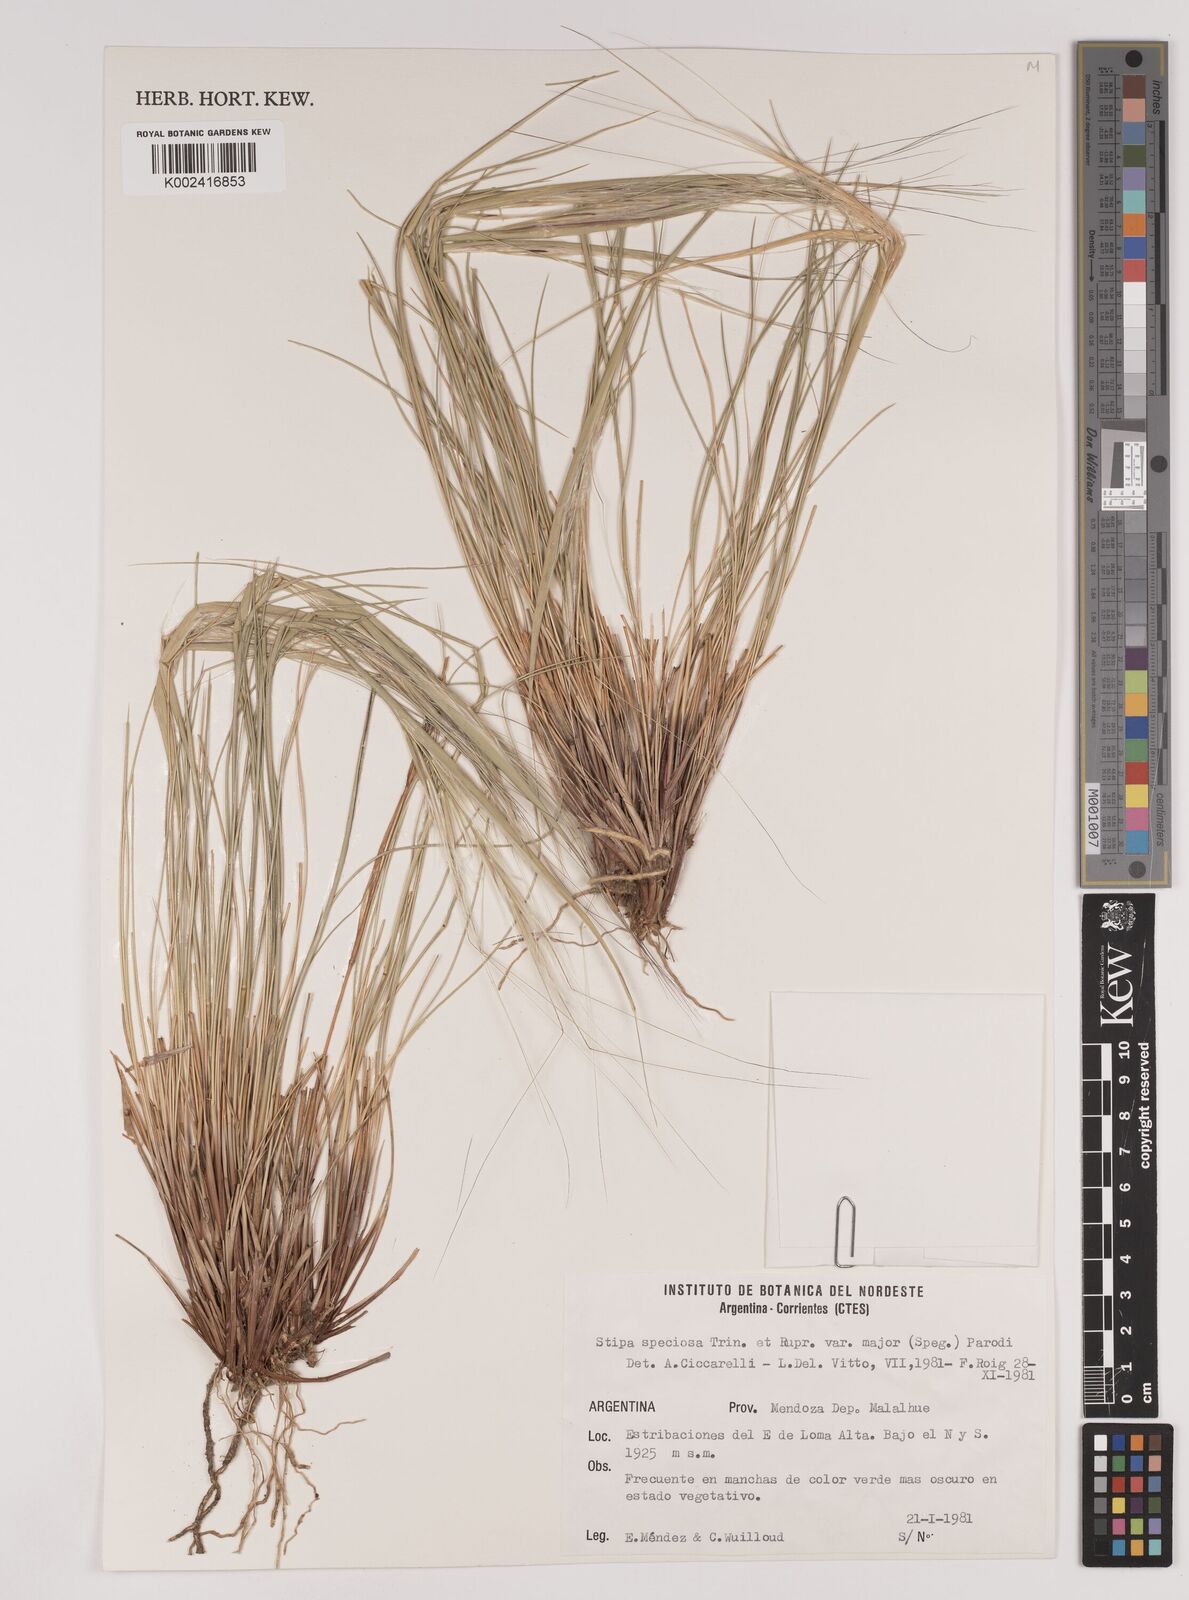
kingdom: Plantae
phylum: Tracheophyta
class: Liliopsida
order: Poales
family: Poaceae
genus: Pappostipa
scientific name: Pappostipa speciosa
